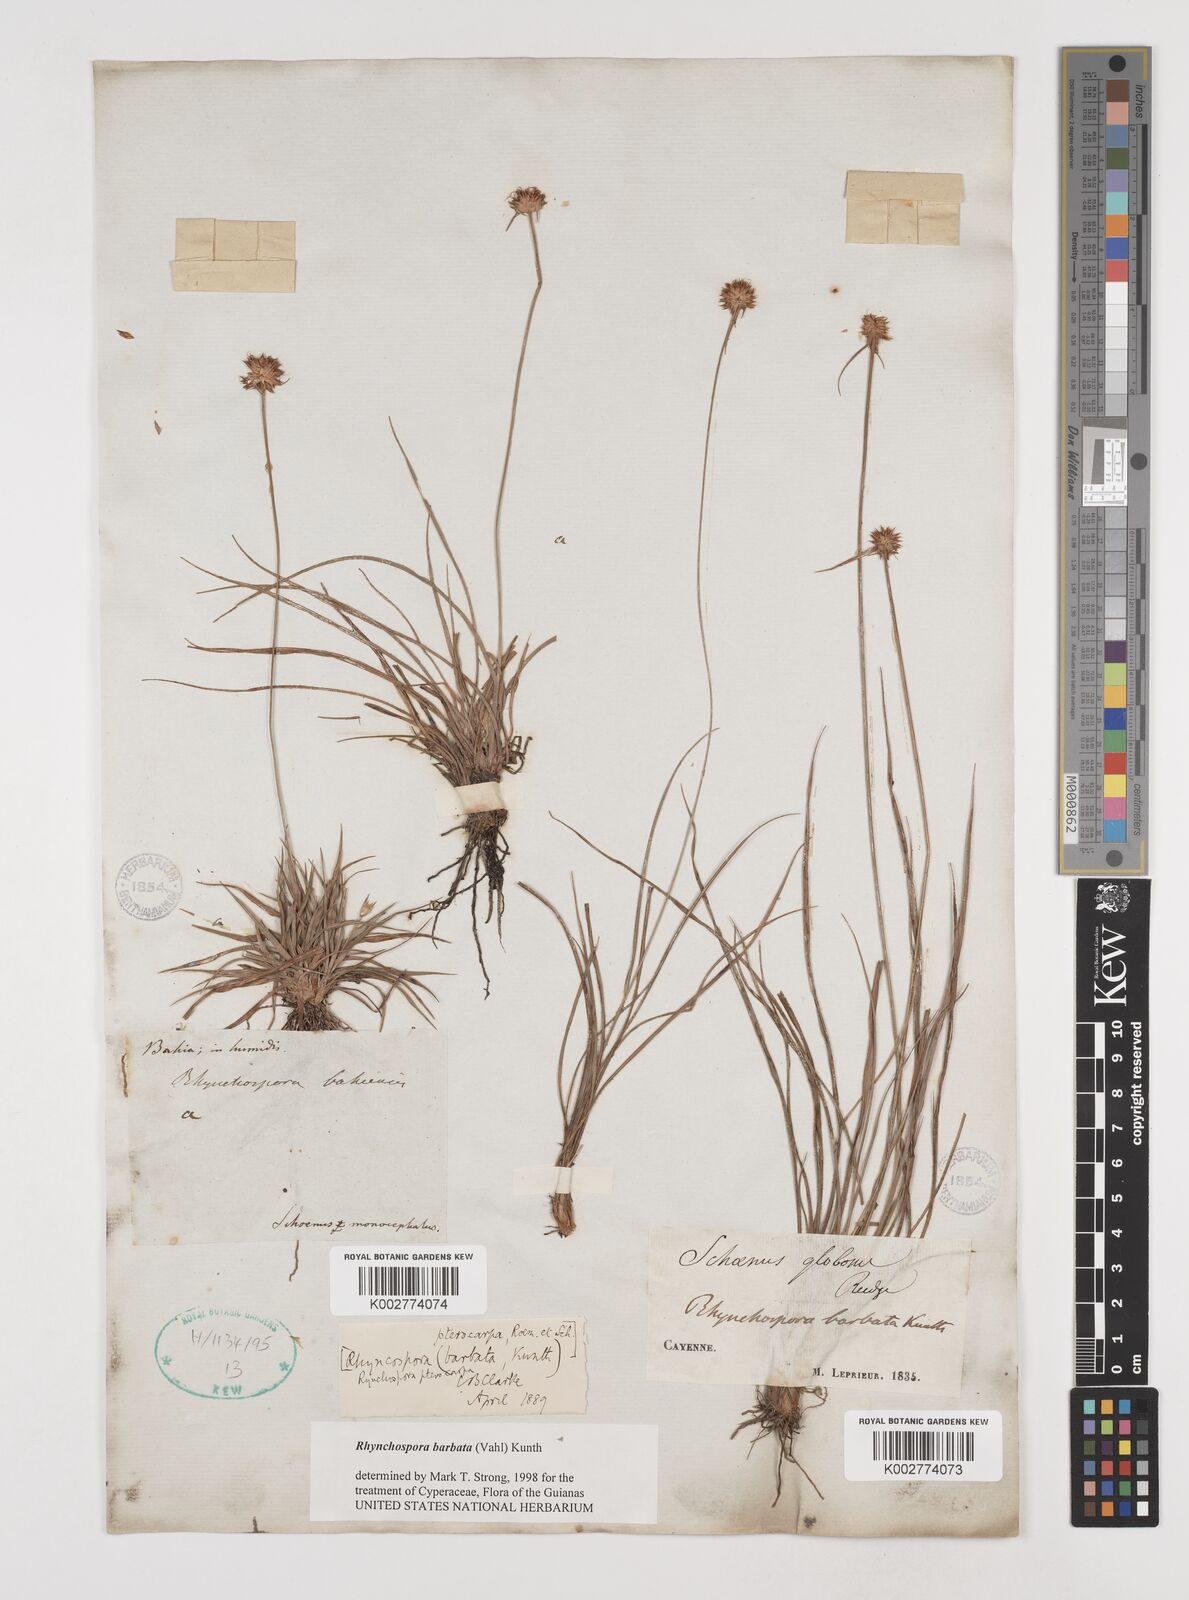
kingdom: Plantae
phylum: Tracheophyta
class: Liliopsida
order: Poales
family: Cyperaceae
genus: Rhynchospora
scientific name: Rhynchospora barbata
